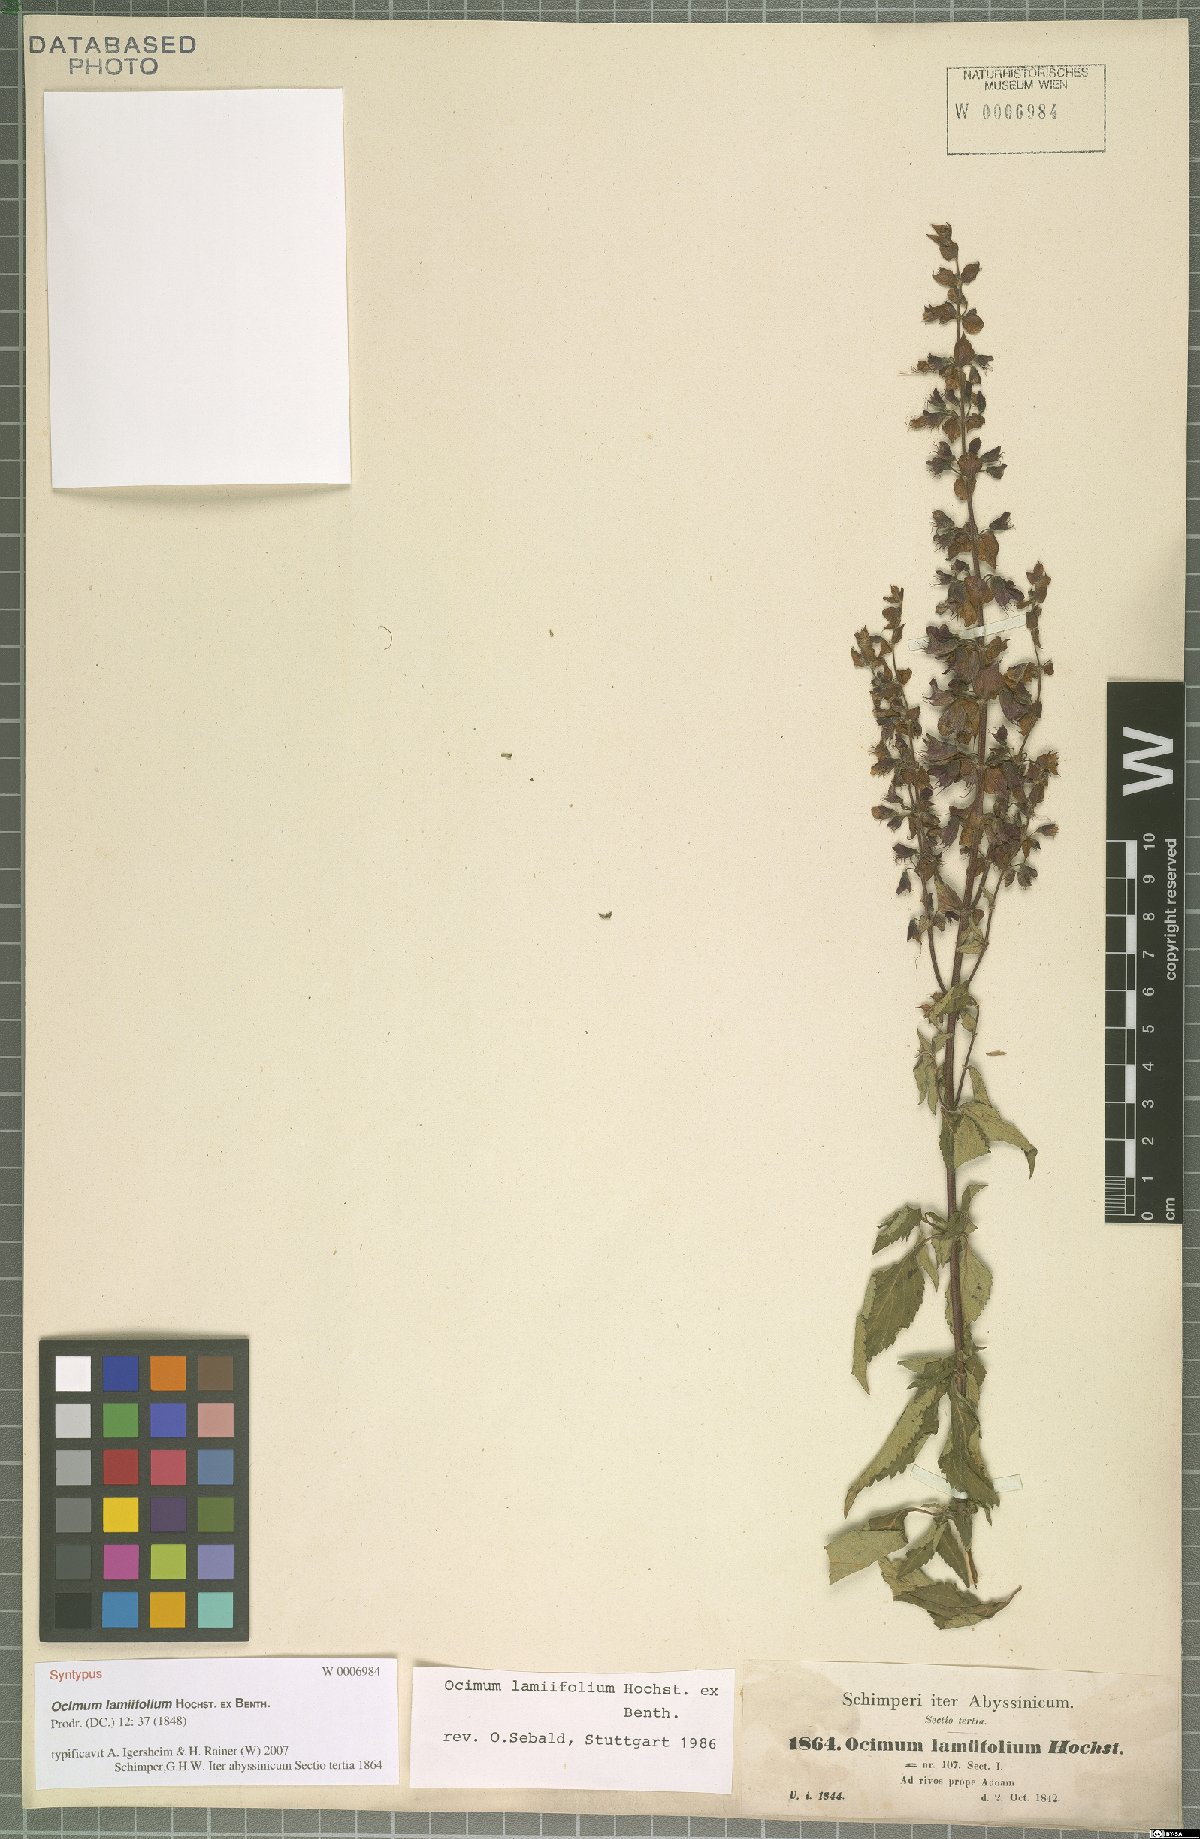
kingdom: Plantae
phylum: Tracheophyta
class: Magnoliopsida
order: Lamiales
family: Lamiaceae
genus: Ocimum
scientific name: Ocimum lamiifolium
